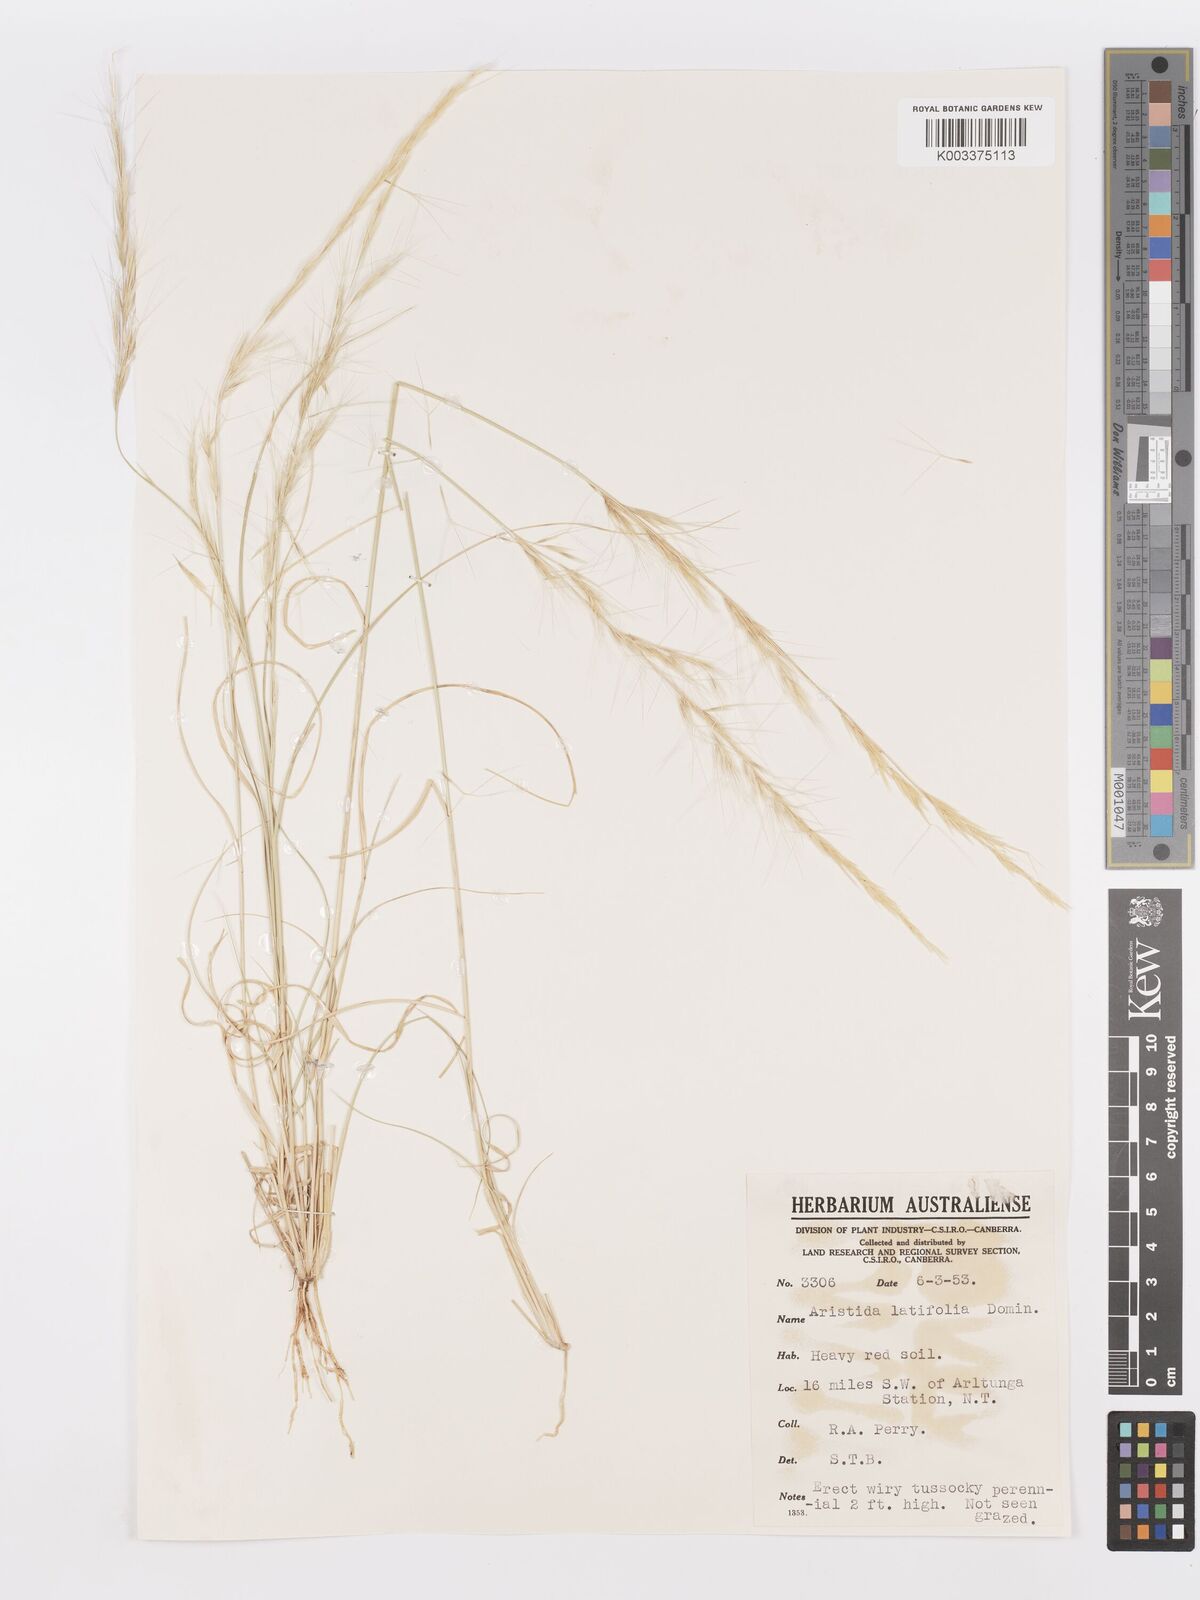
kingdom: Plantae
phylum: Tracheophyta
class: Liliopsida
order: Poales
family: Poaceae
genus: Aristida
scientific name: Aristida latifolia
